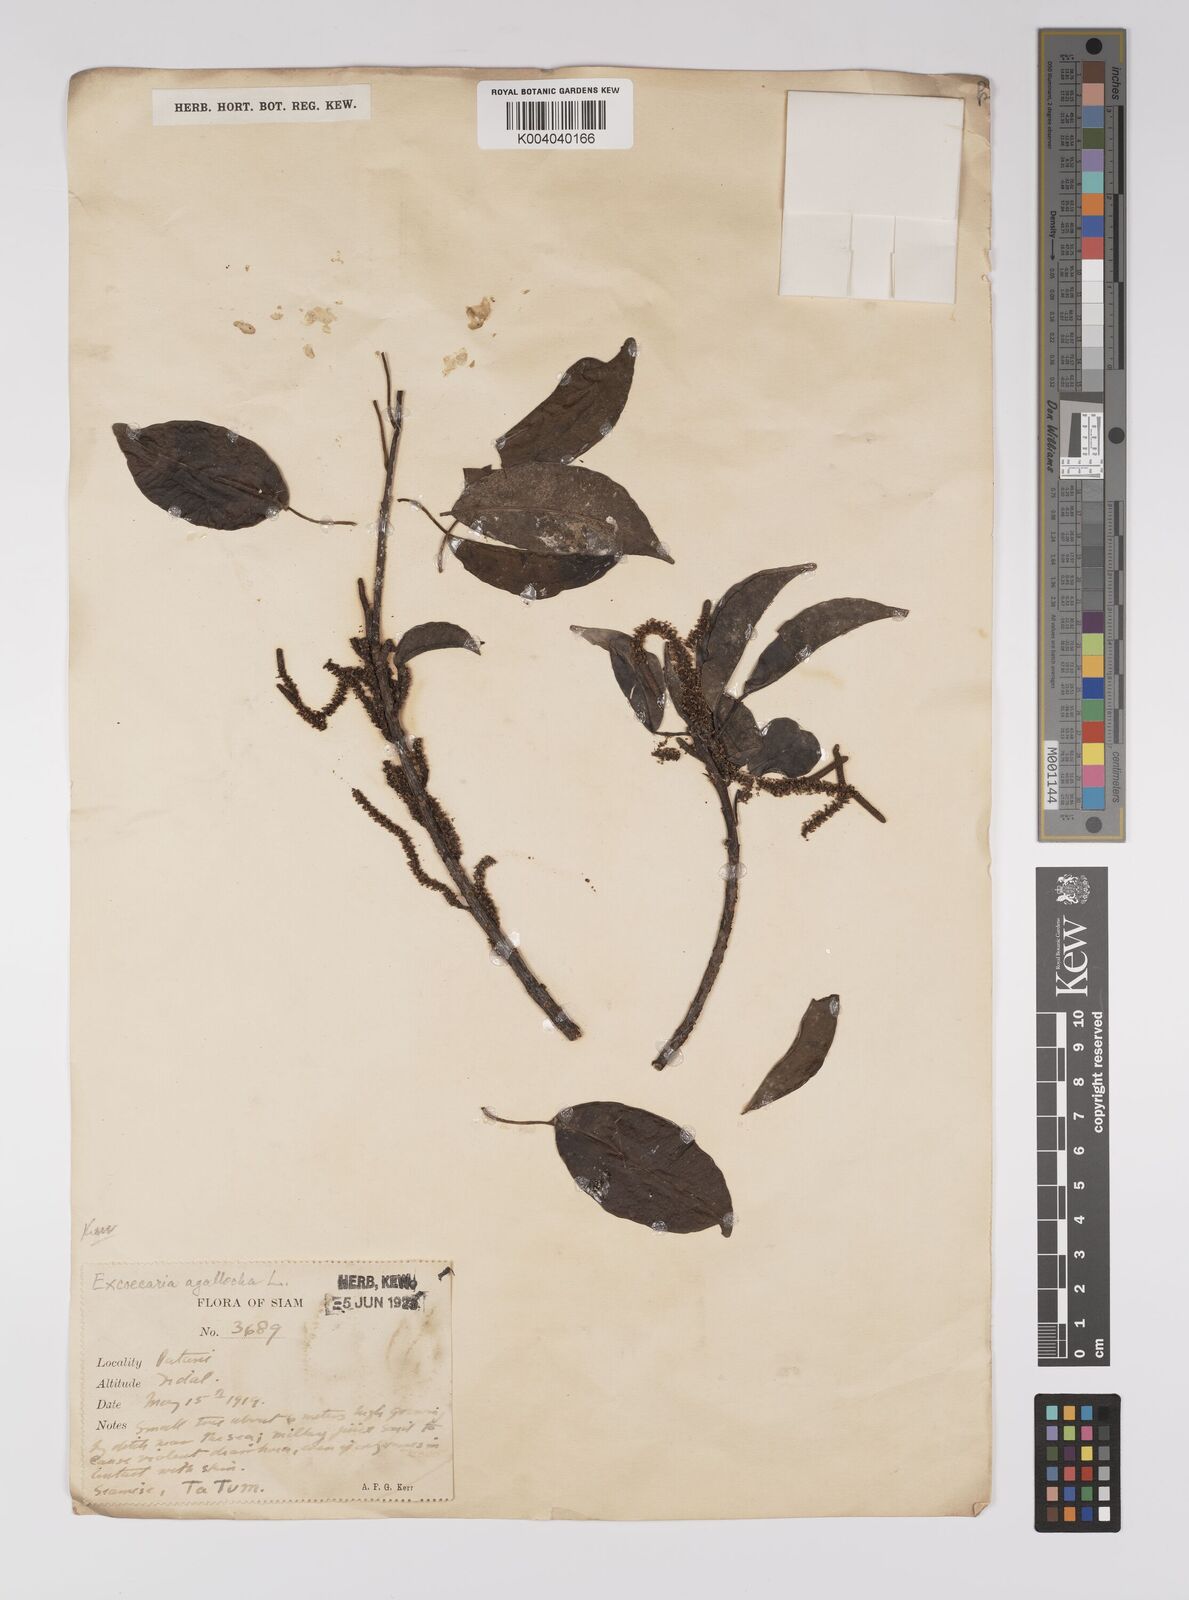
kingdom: Plantae
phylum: Tracheophyta
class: Magnoliopsida
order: Malpighiales
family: Euphorbiaceae
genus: Excoecaria
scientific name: Excoecaria agallocha
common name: River poisontree
